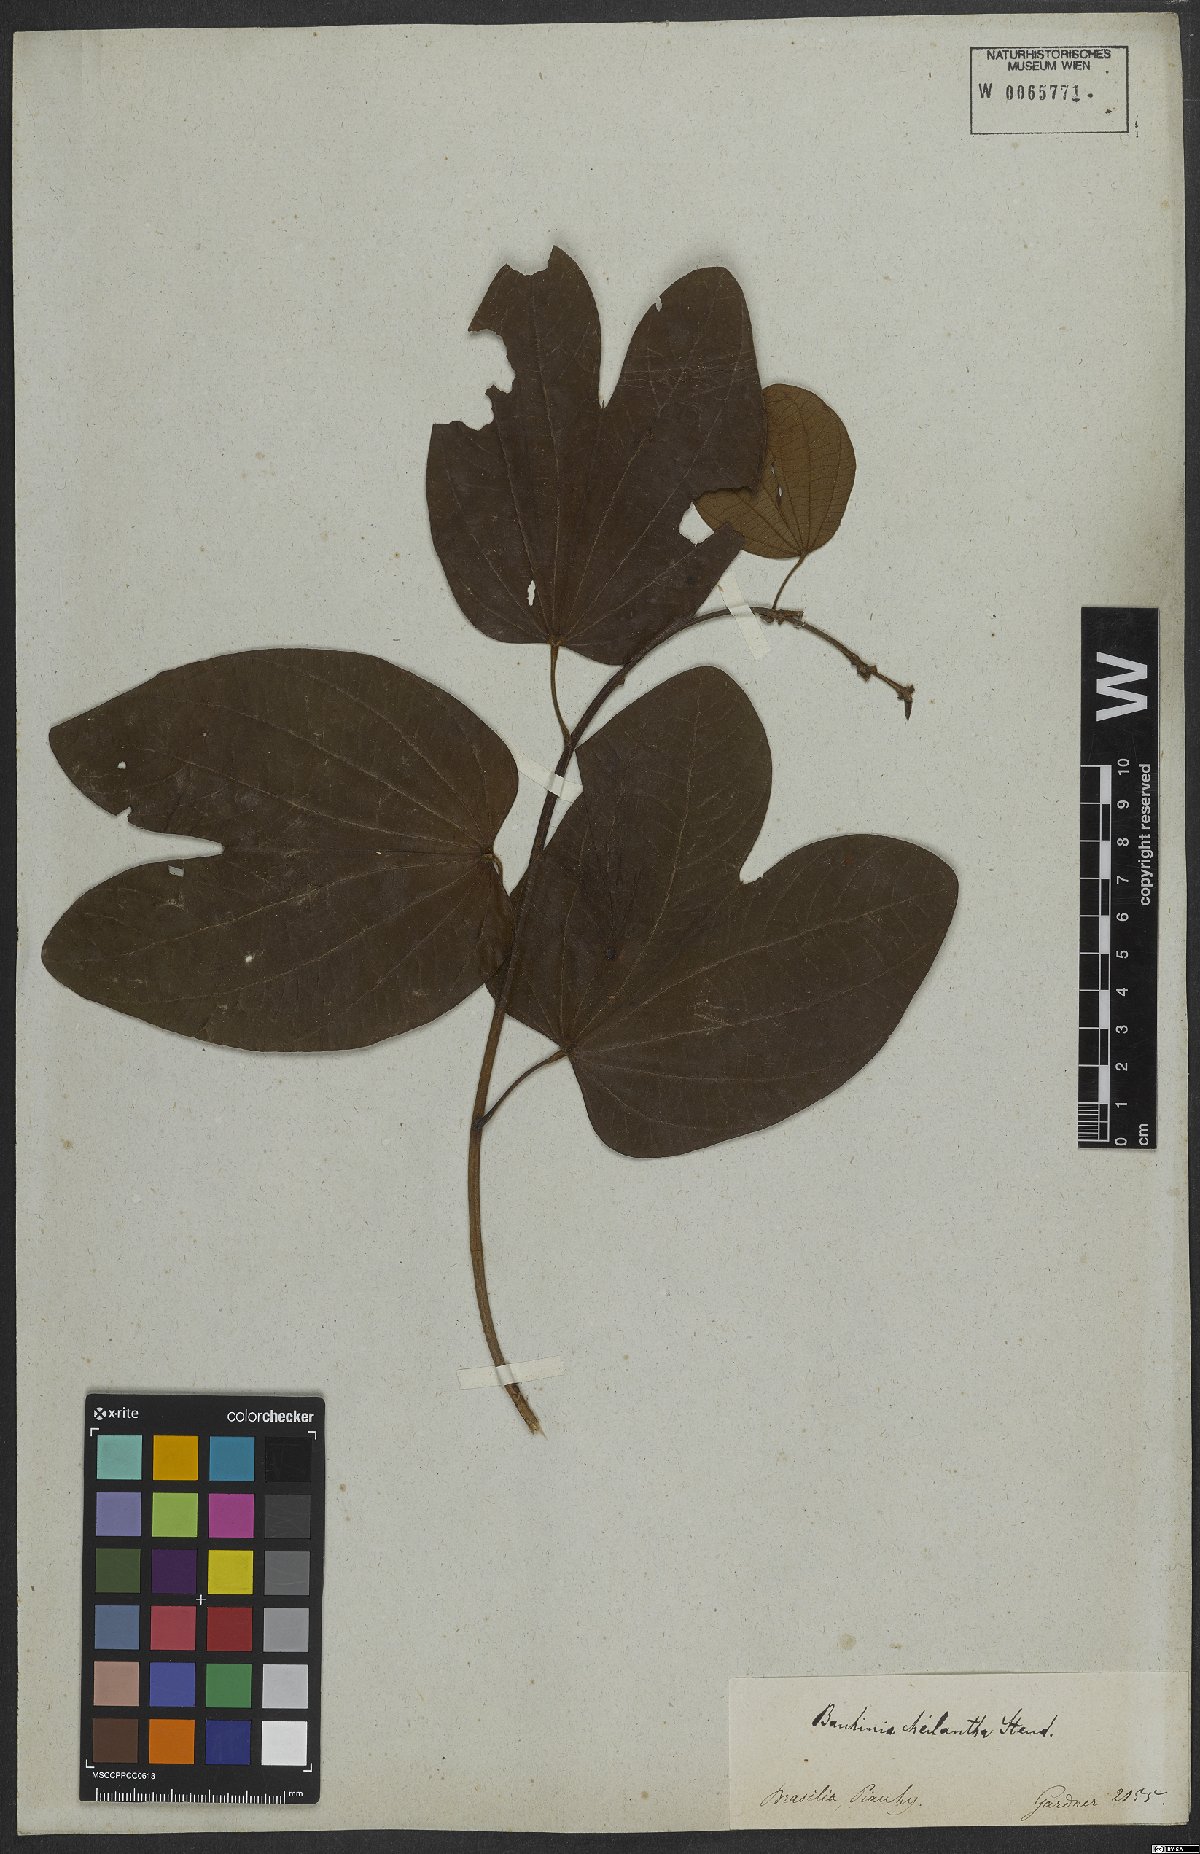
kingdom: Plantae
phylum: Tracheophyta
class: Magnoliopsida
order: Fabales
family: Fabaceae
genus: Bauhinia
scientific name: Bauhinia cheilantha
